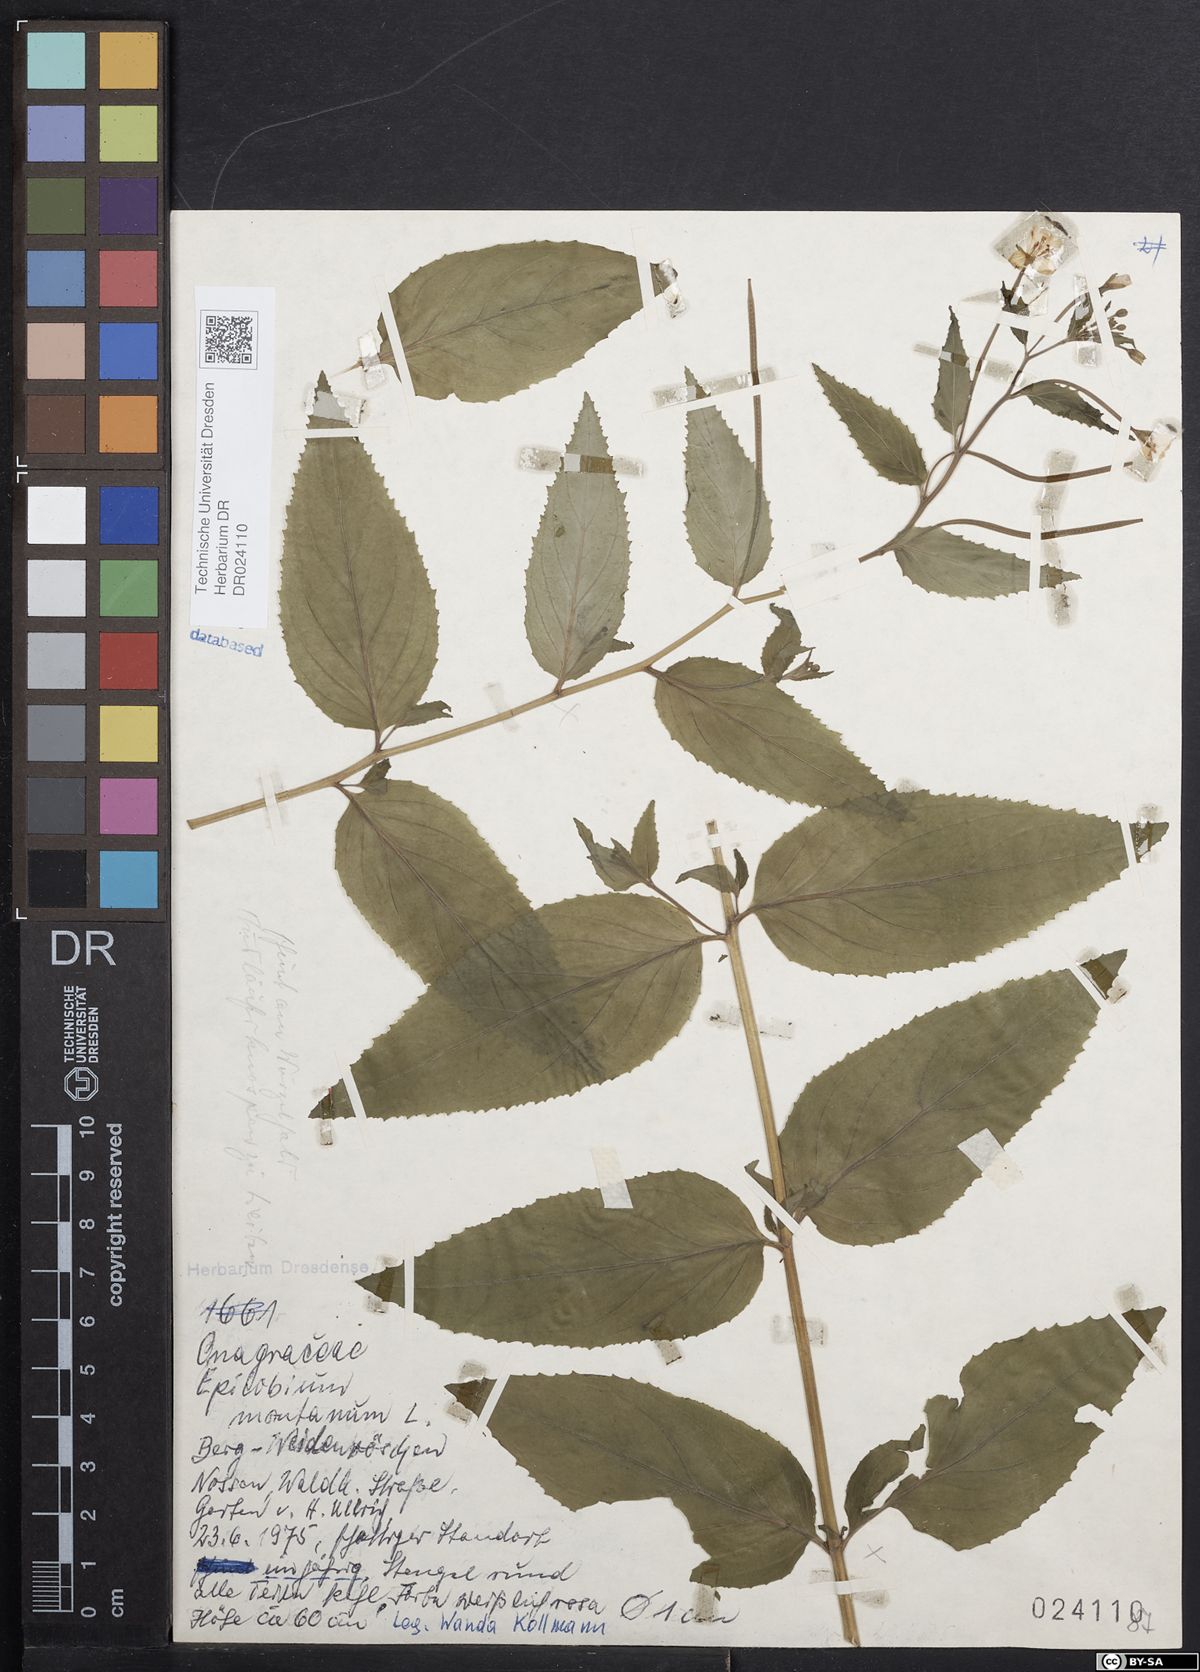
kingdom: Plantae
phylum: Tracheophyta
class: Magnoliopsida
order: Myrtales
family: Onagraceae
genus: Epilobium
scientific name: Epilobium montanum
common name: Broad-leaved willowherb
